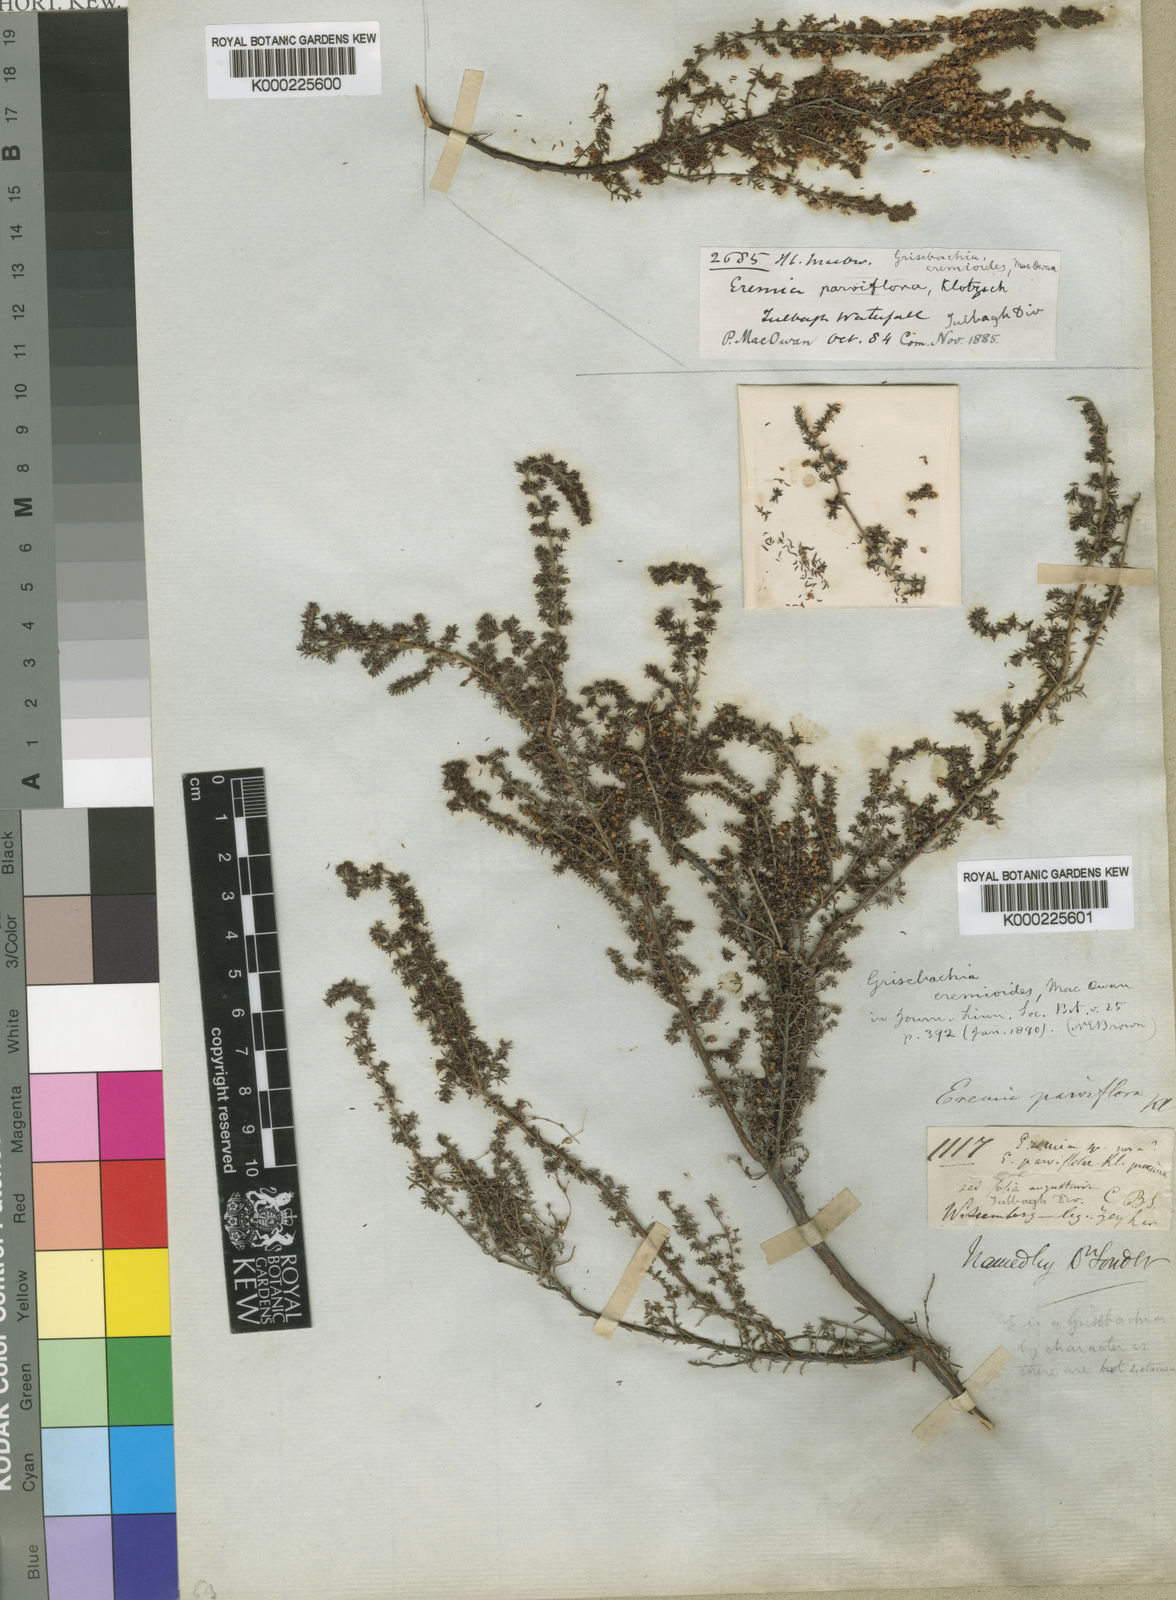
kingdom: Plantae
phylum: Tracheophyta
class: Magnoliopsida
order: Ericales
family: Ericaceae
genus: Erica
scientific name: Erica
